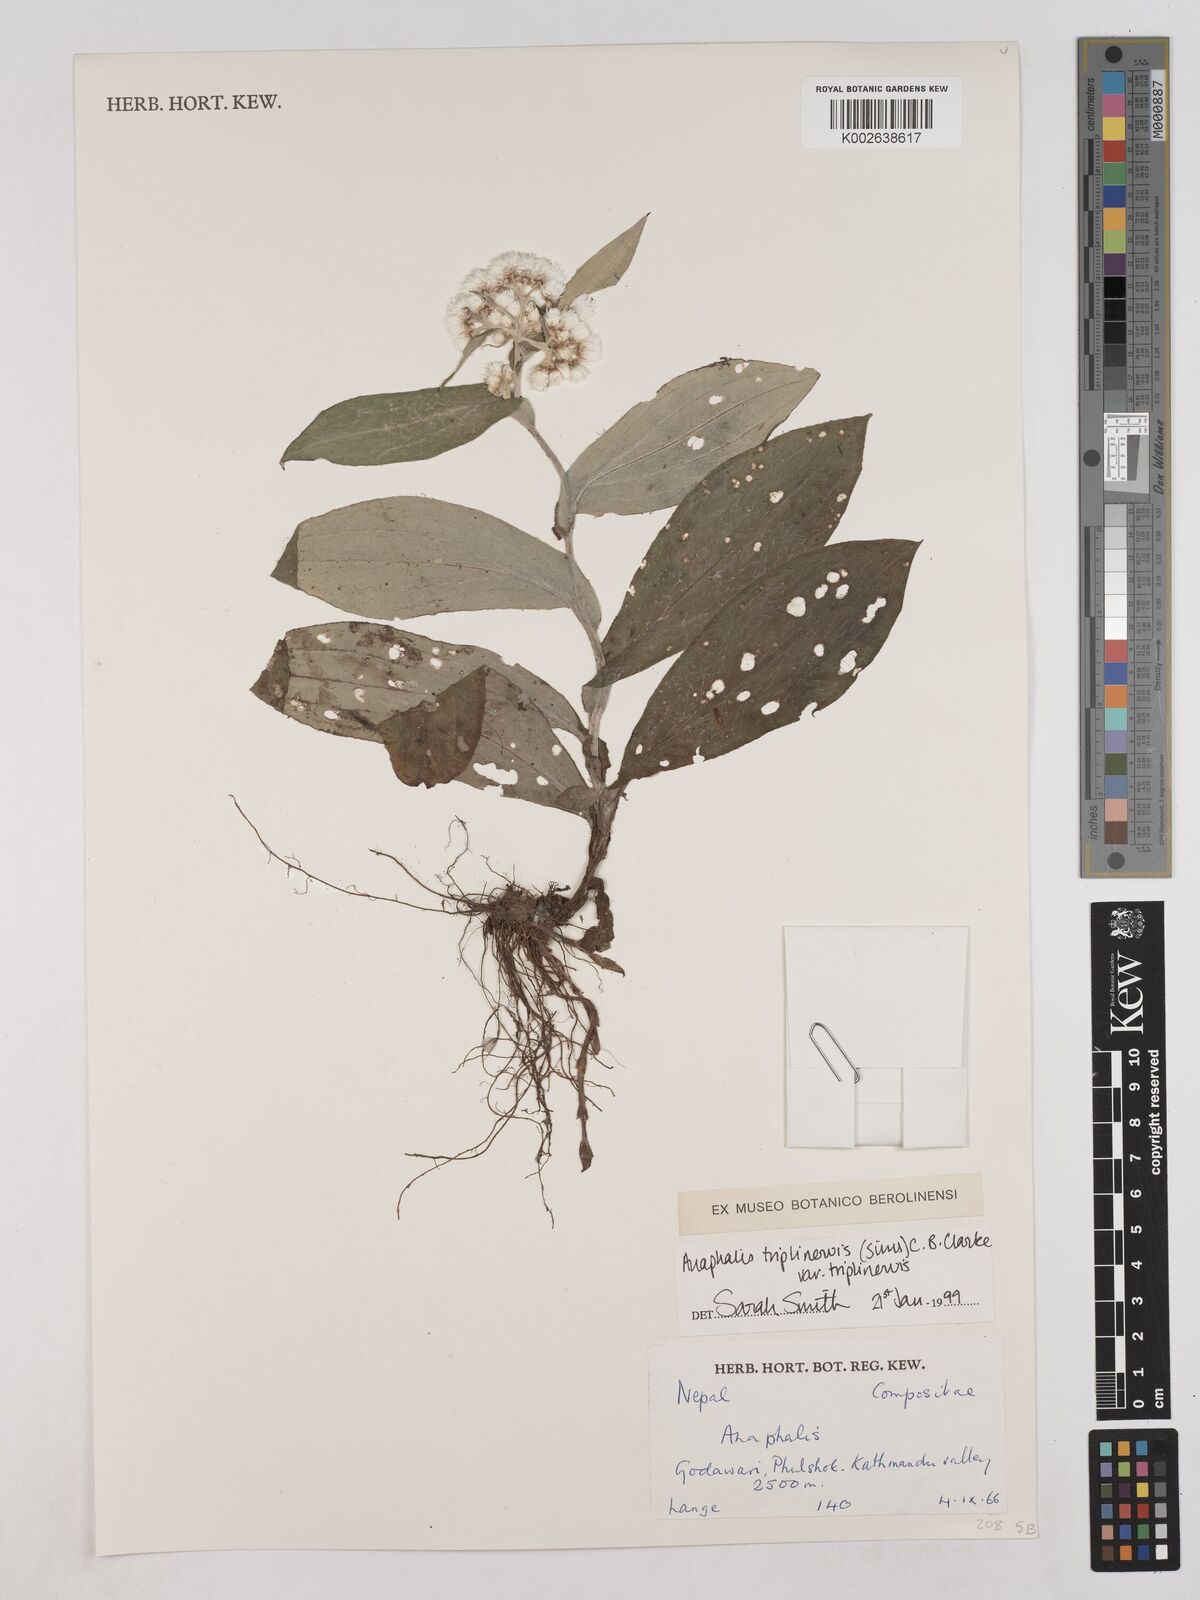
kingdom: Plantae
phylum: Tracheophyta
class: Magnoliopsida
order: Asterales
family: Asteraceae
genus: Anaphalis
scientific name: Anaphalis triplinervis
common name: Pearly everlasting
